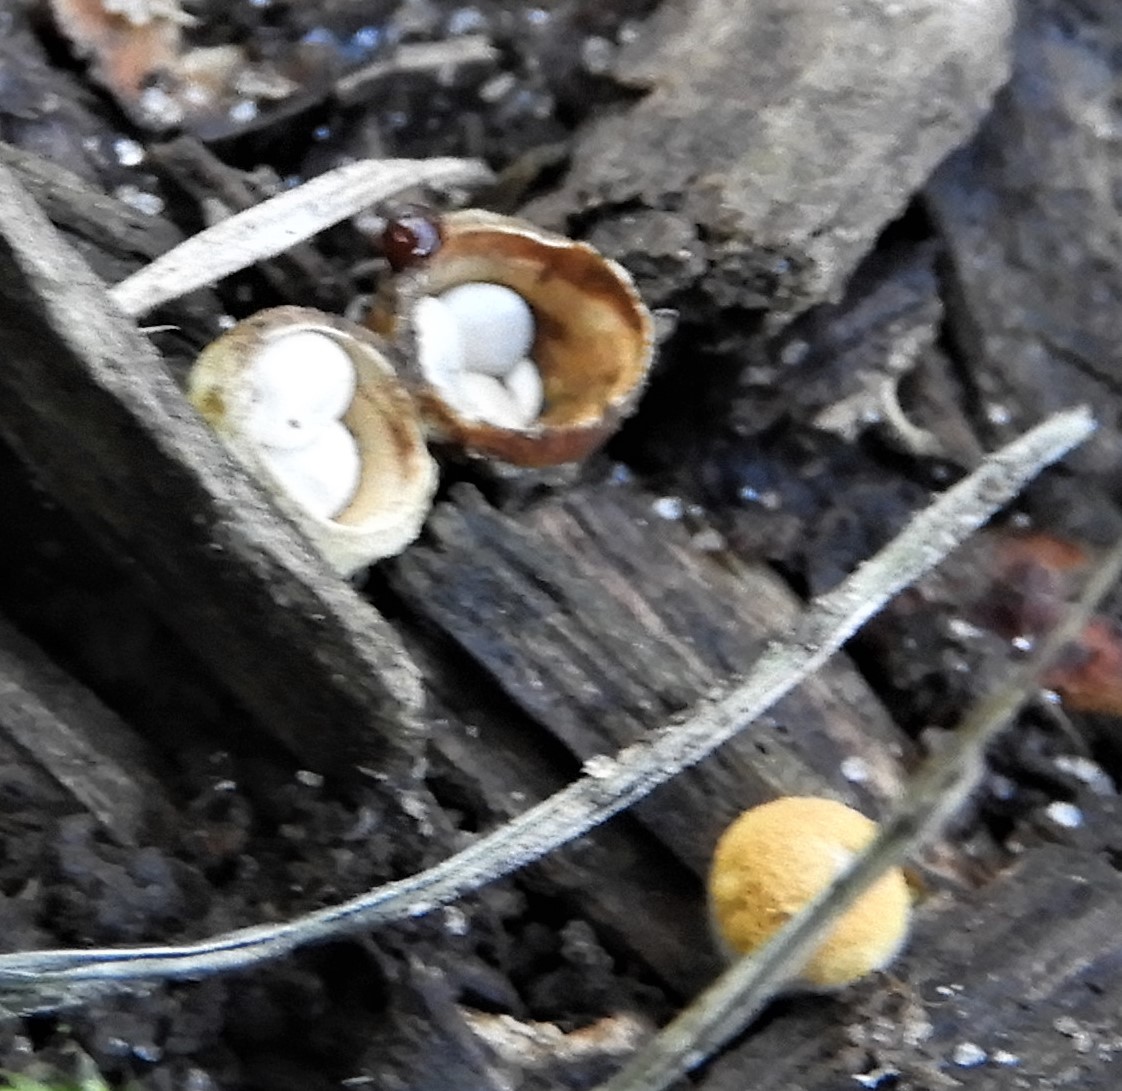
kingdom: Fungi
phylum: Basidiomycota
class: Agaricomycetes
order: Agaricales
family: Nidulariaceae
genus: Crucibulum
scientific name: Crucibulum crucibuliforme
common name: krukkesvamp
